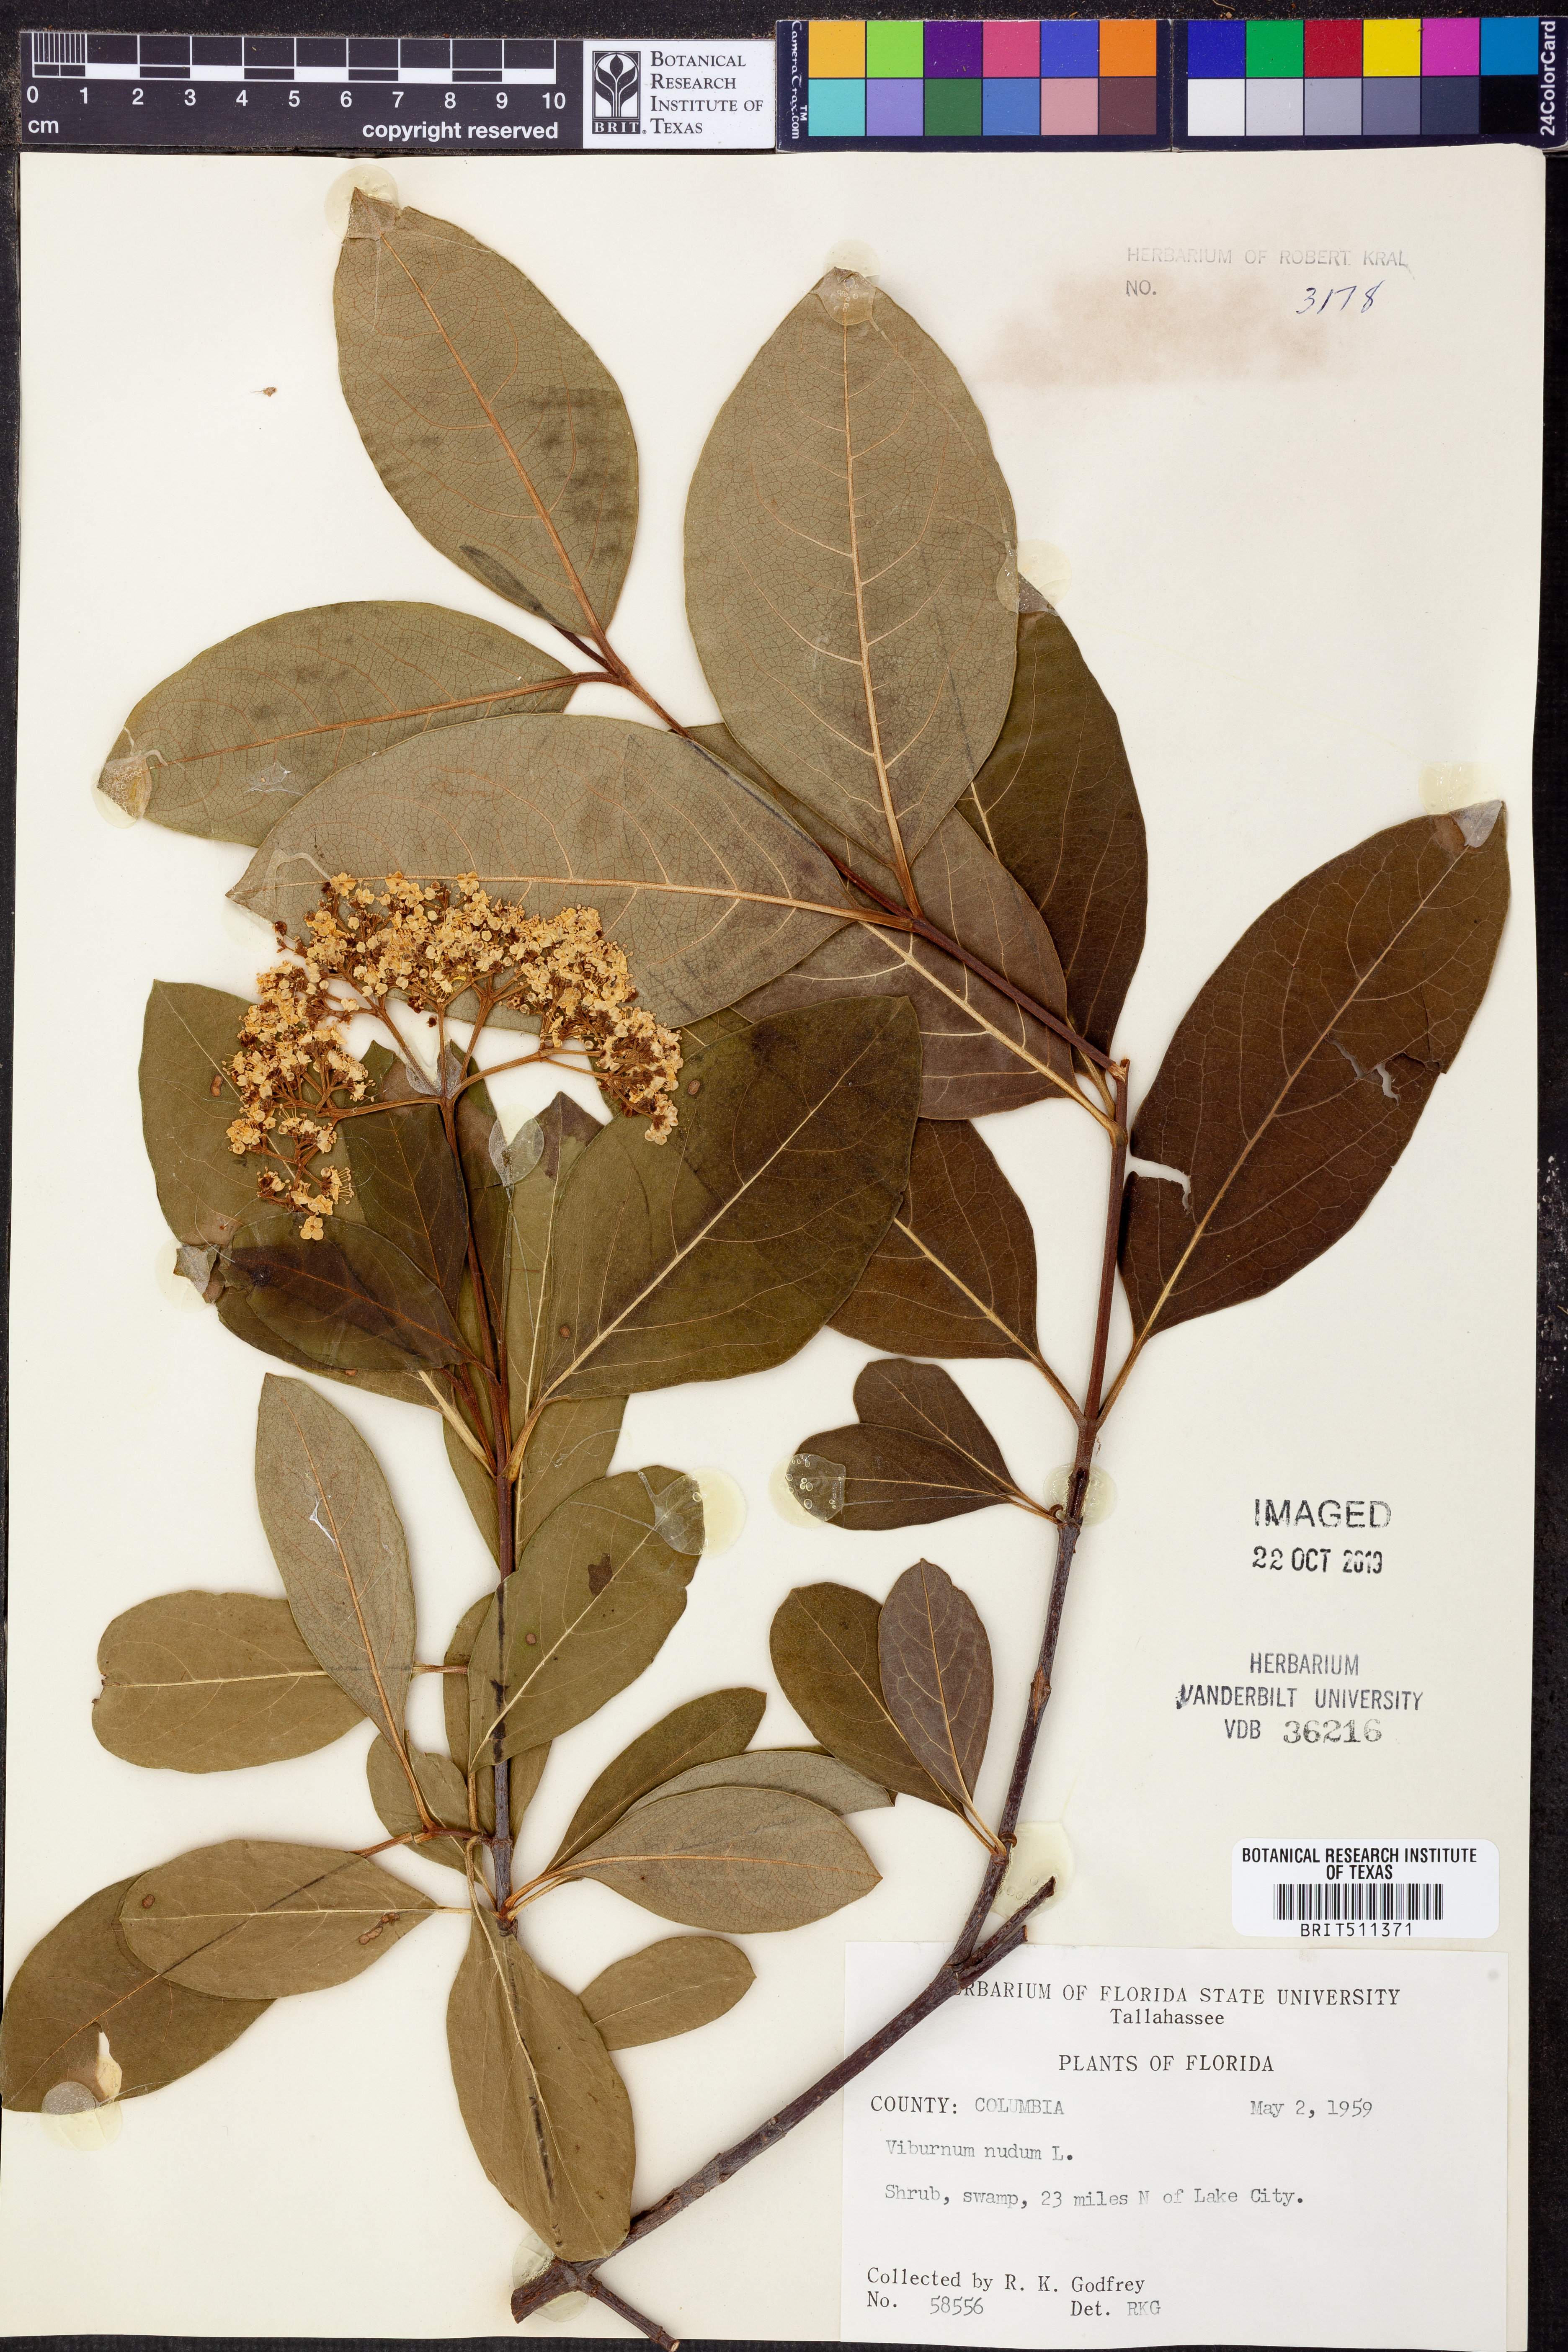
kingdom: Plantae
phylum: Tracheophyta
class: Magnoliopsida
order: Dipsacales
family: Viburnaceae
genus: Viburnum
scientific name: Viburnum nudum
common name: Possum haw
